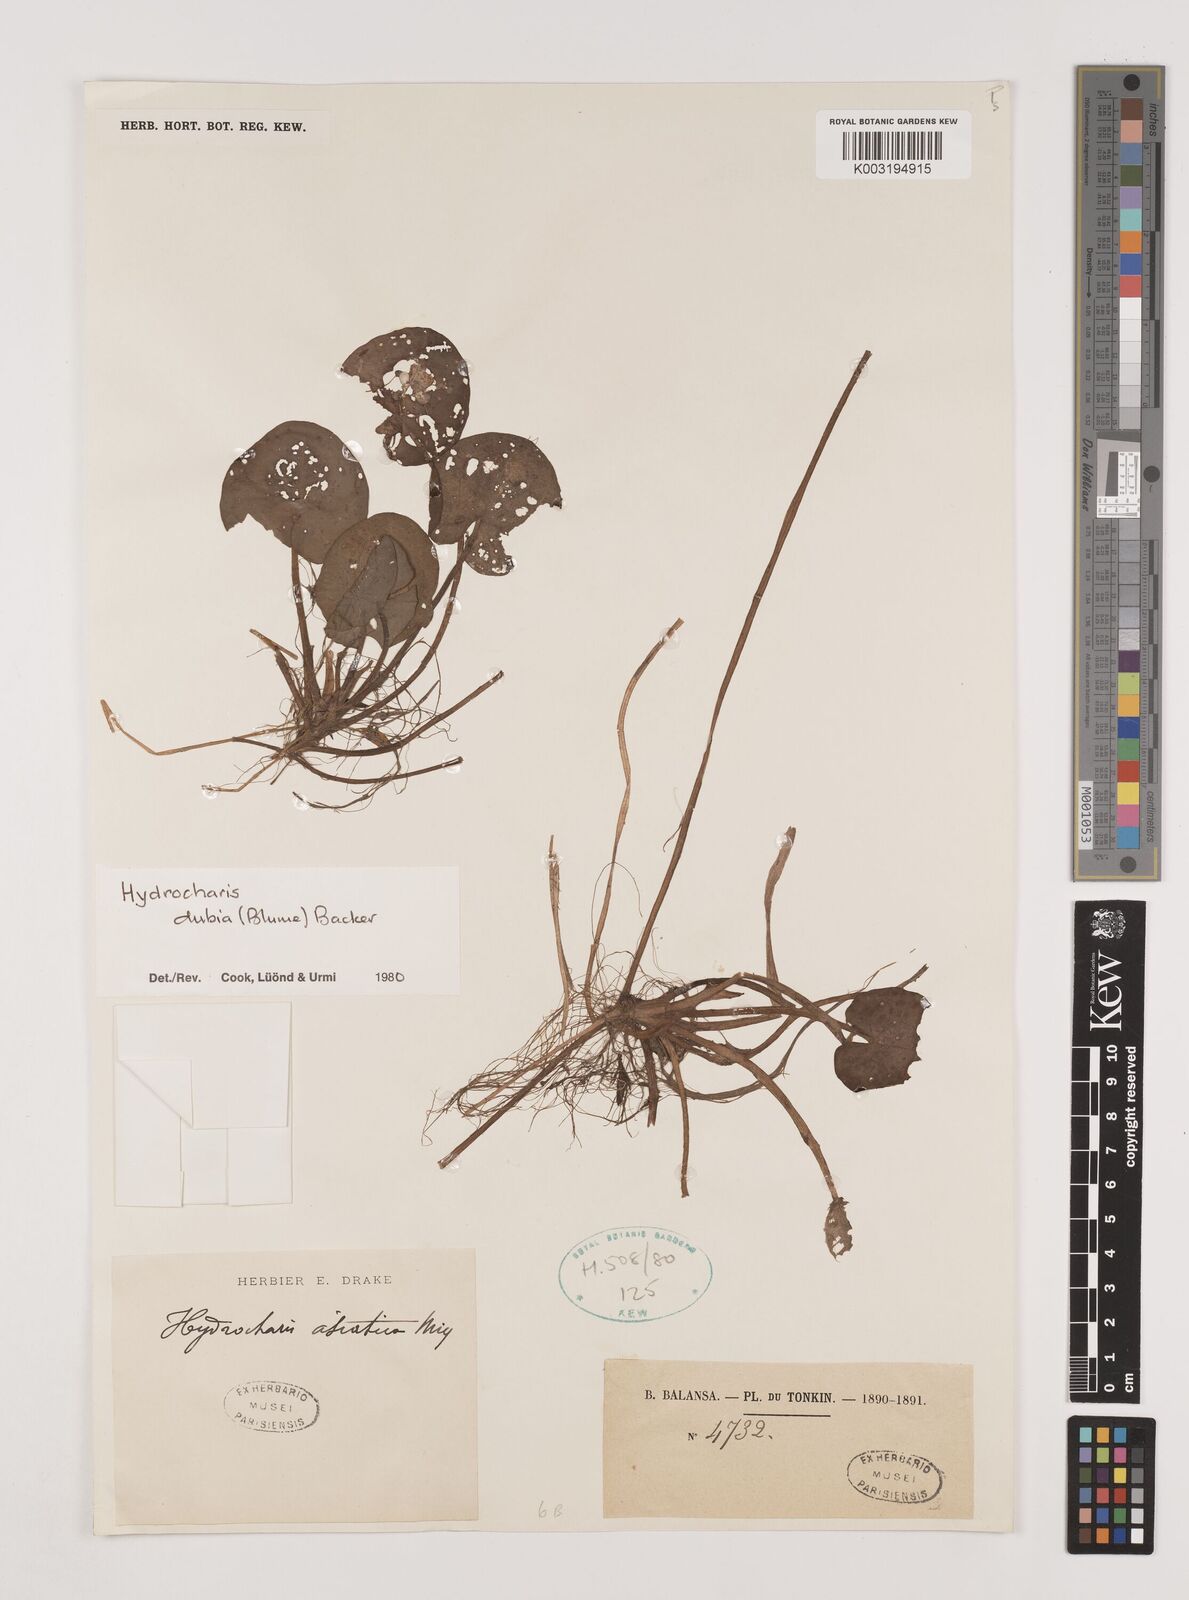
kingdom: Plantae
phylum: Tracheophyta
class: Liliopsida
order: Alismatales
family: Hydrocharitaceae
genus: Hydrocharis
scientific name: Hydrocharis dubia
